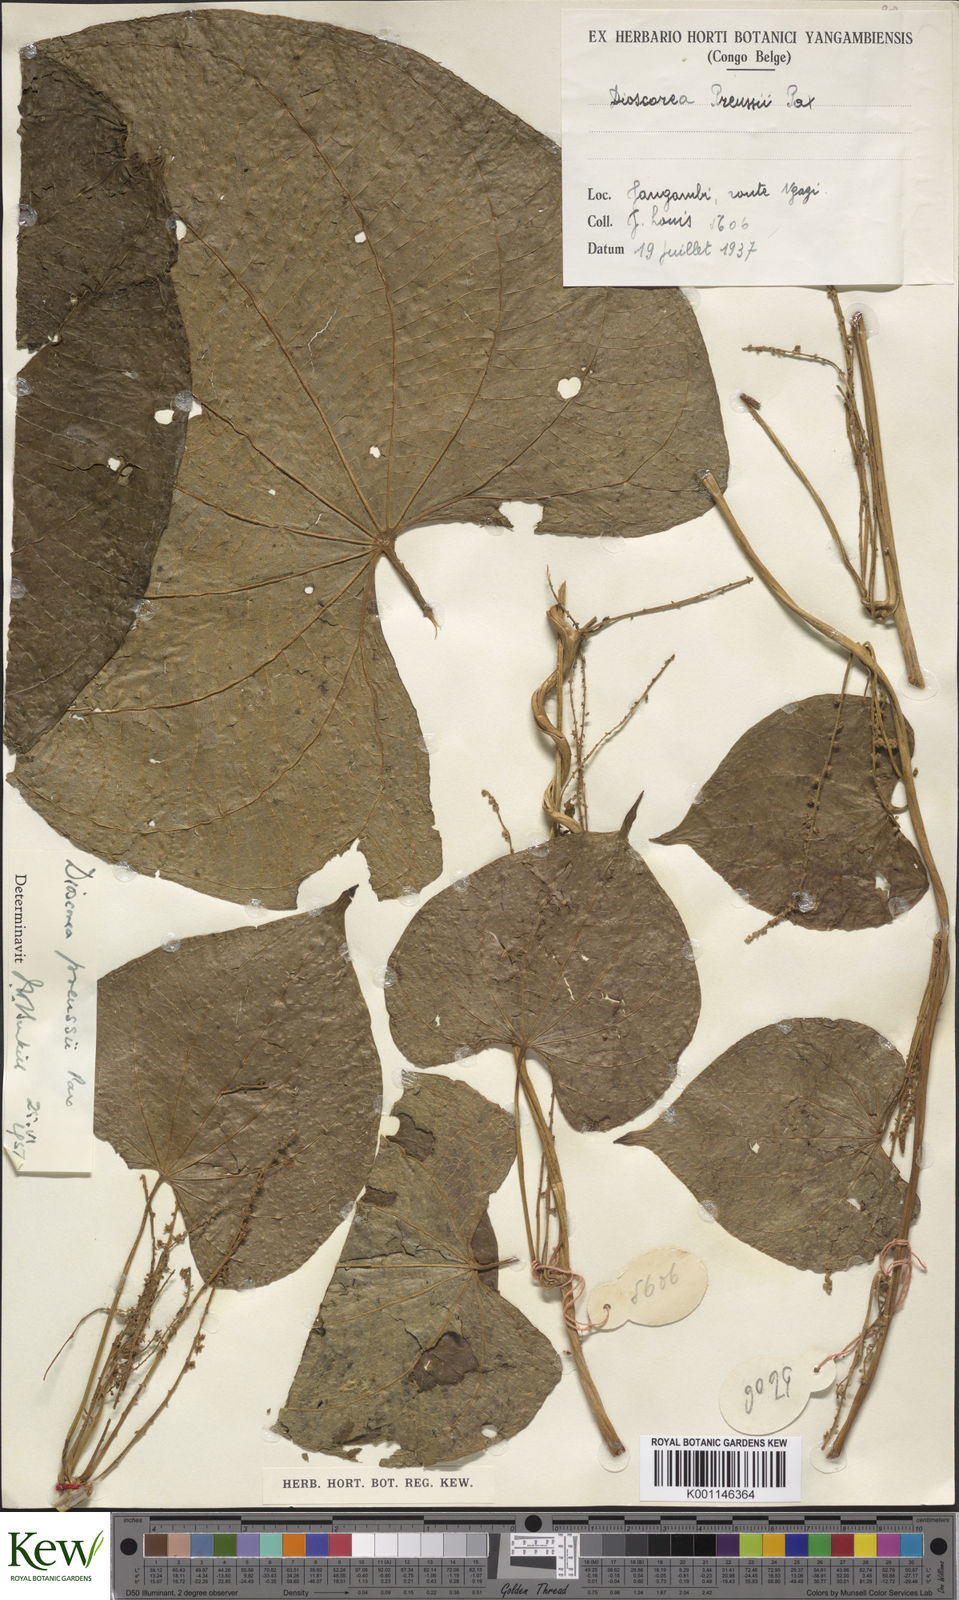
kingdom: Plantae
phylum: Tracheophyta
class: Liliopsida
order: Dioscoreales
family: Dioscoreaceae
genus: Dioscorea
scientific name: Dioscorea preussii
